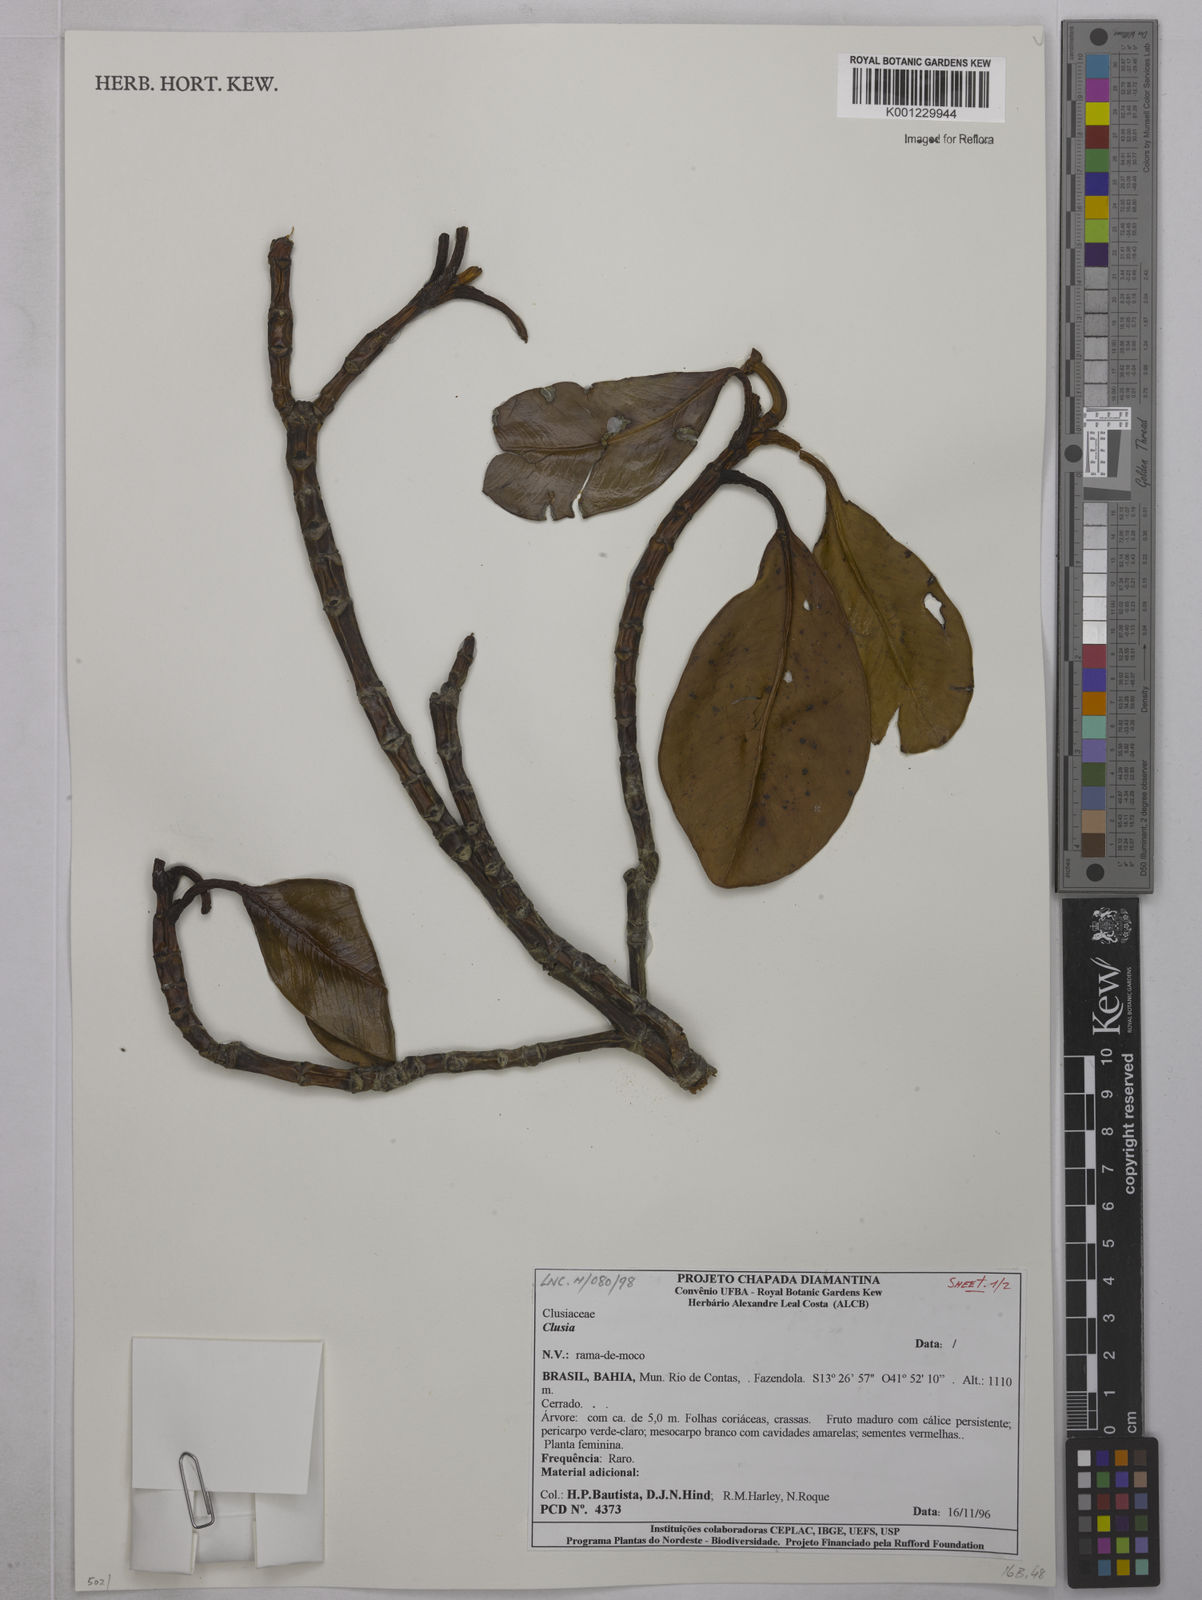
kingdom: Plantae
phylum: Tracheophyta
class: Magnoliopsida
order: Malpighiales
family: Clusiaceae
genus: Clusia
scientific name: Clusia
